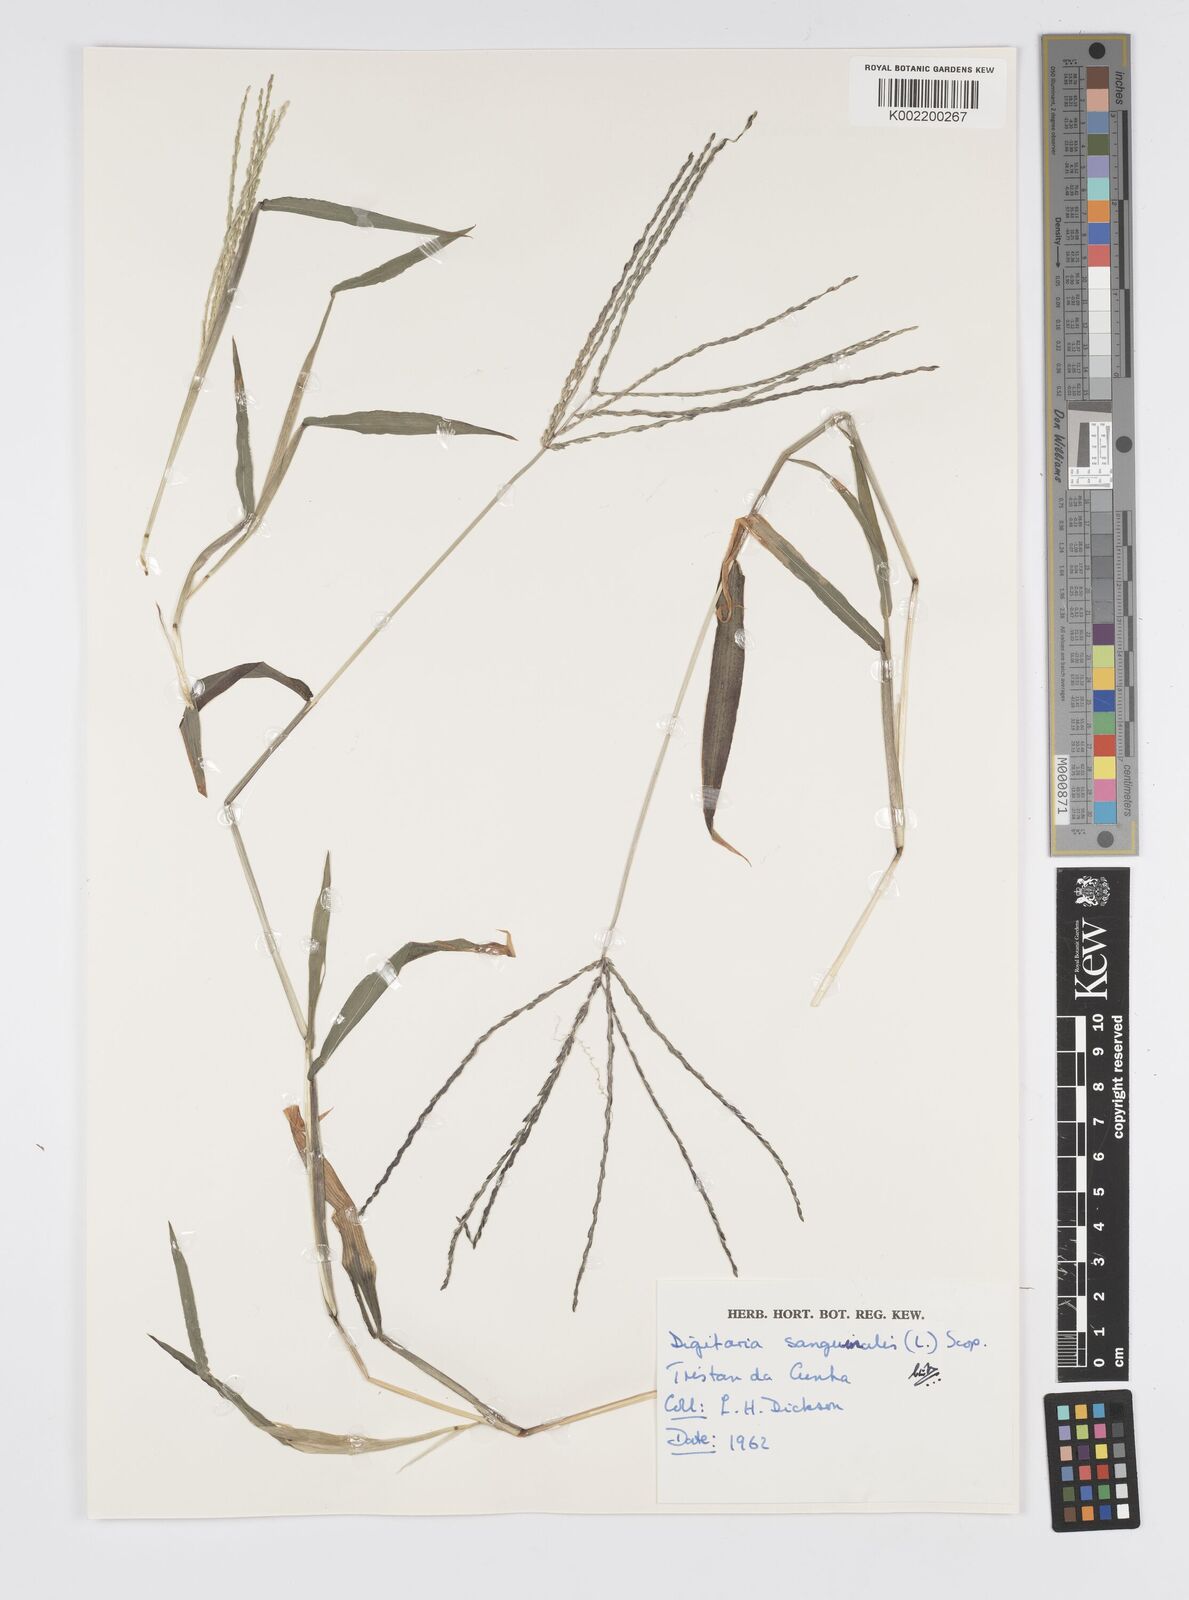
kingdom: Plantae
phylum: Tracheophyta
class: Liliopsida
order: Poales
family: Poaceae
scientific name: Poaceae
